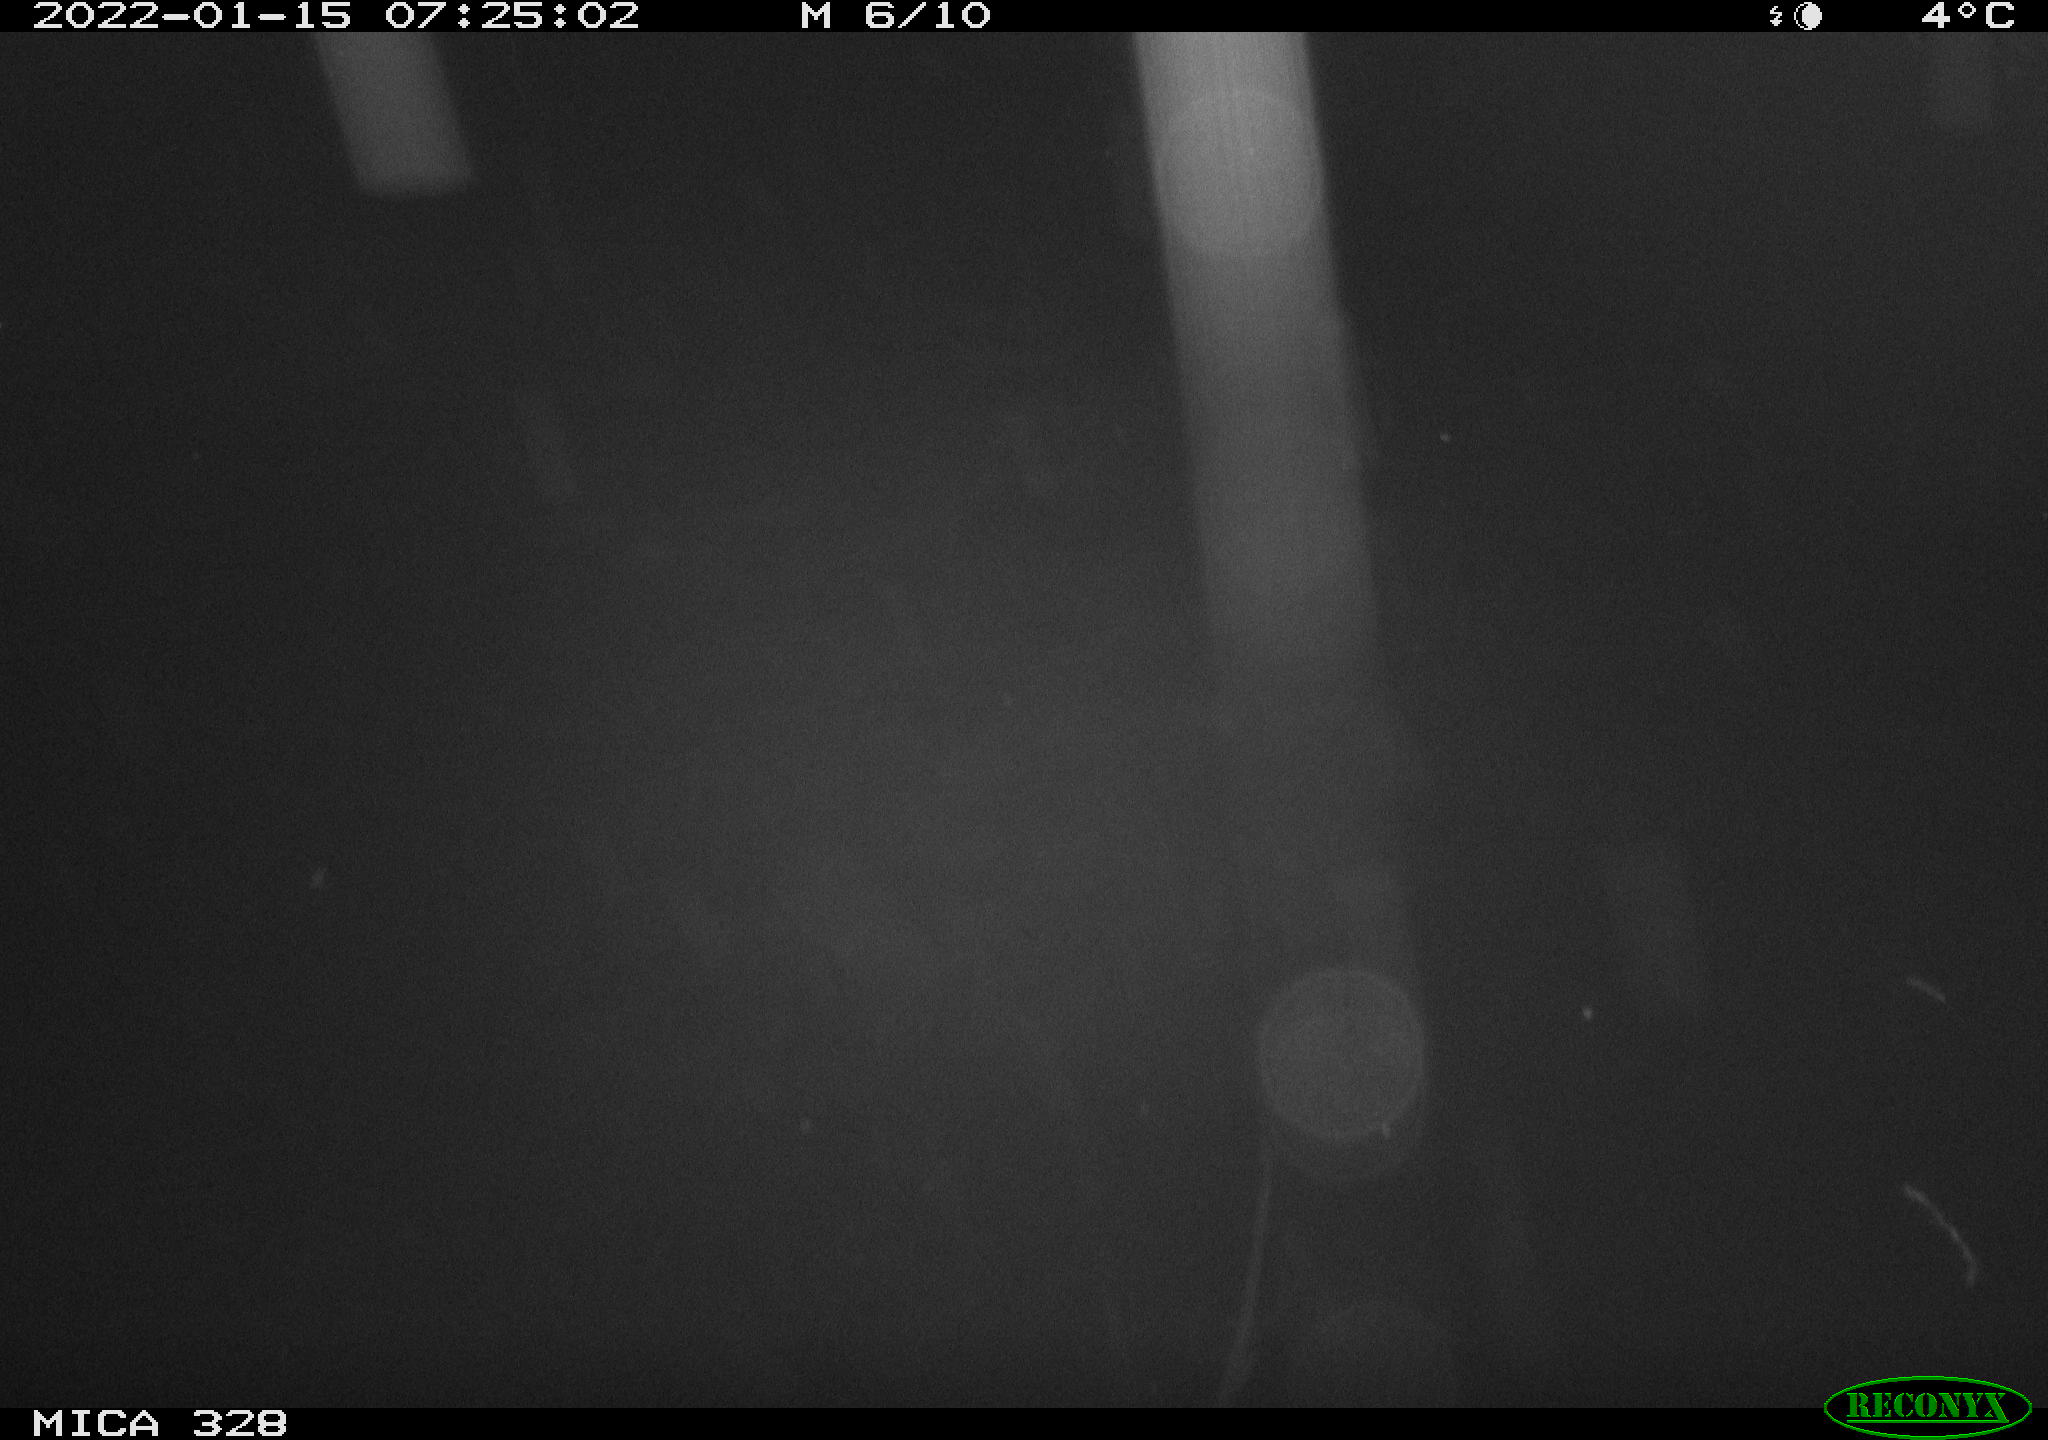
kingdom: Animalia
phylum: Chordata
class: Mammalia
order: Rodentia
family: Cricetidae
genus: Ondatra
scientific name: Ondatra zibethicus
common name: Muskrat
